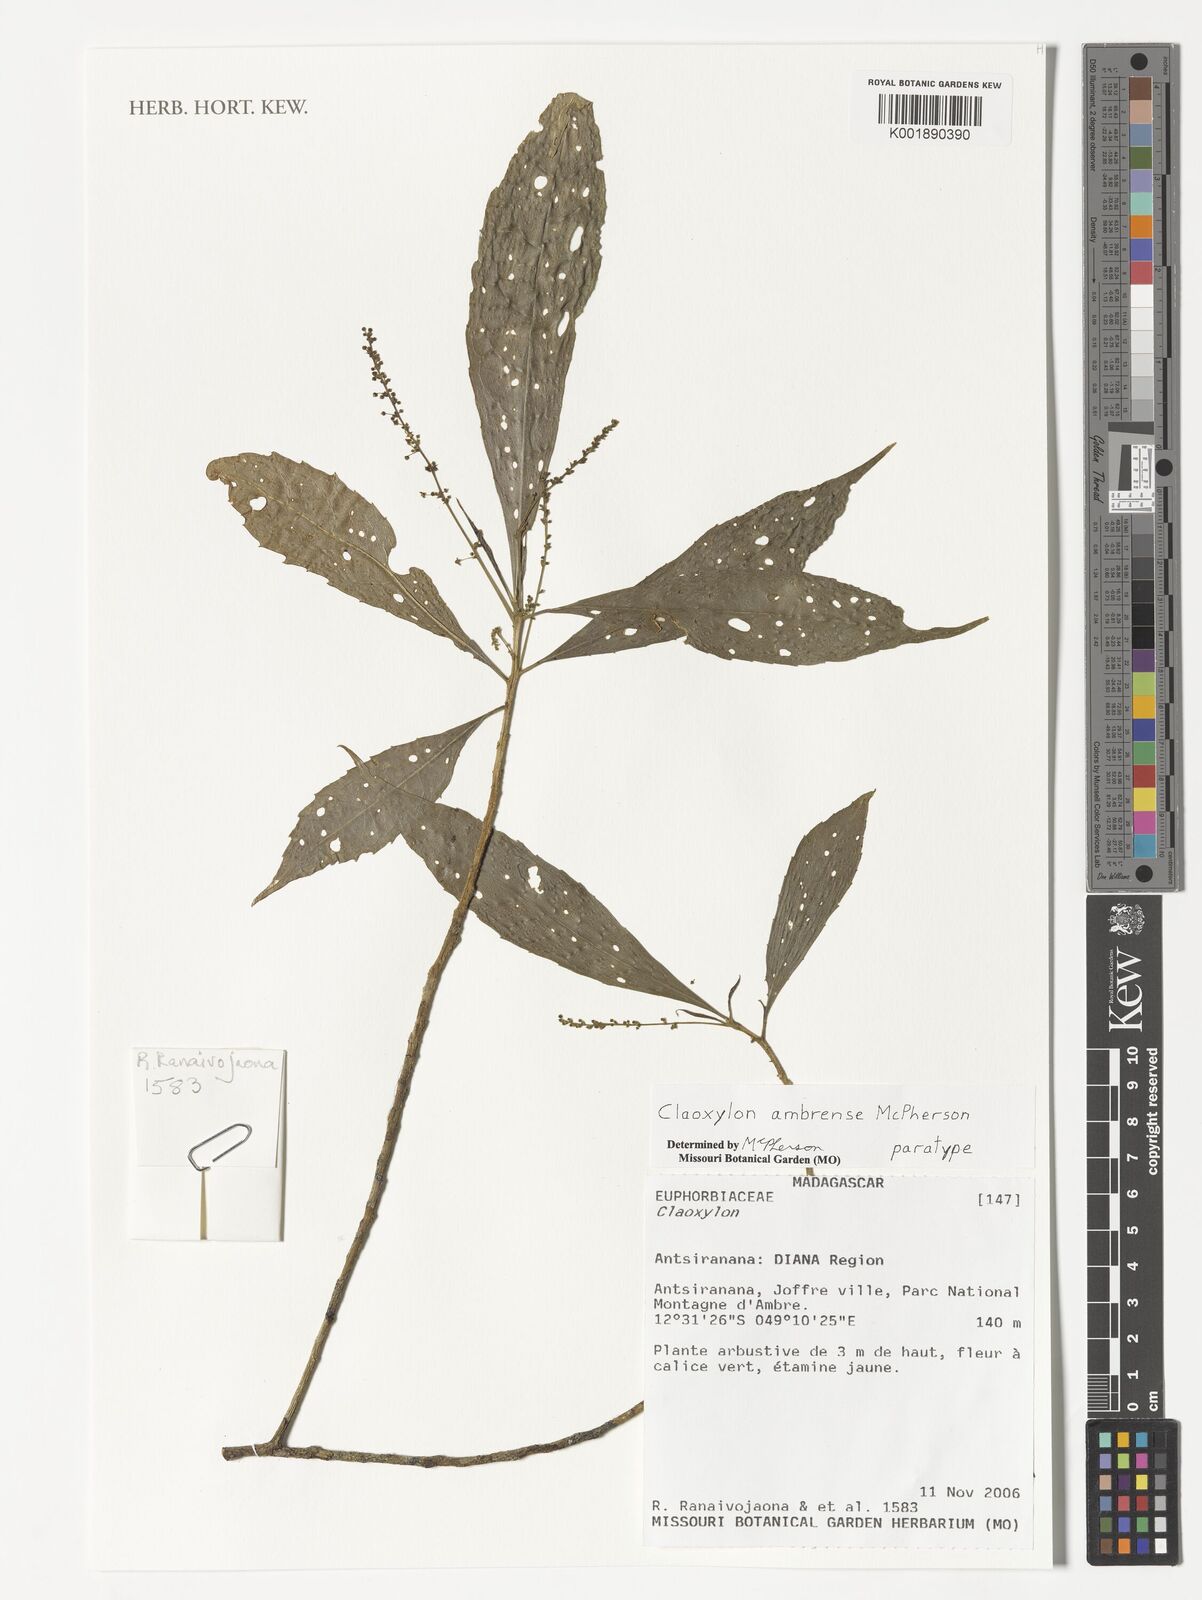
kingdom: Plantae
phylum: Tracheophyta
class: Magnoliopsida
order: Malpighiales
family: Euphorbiaceae
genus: Claoxylon
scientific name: Claoxylon ambrense
